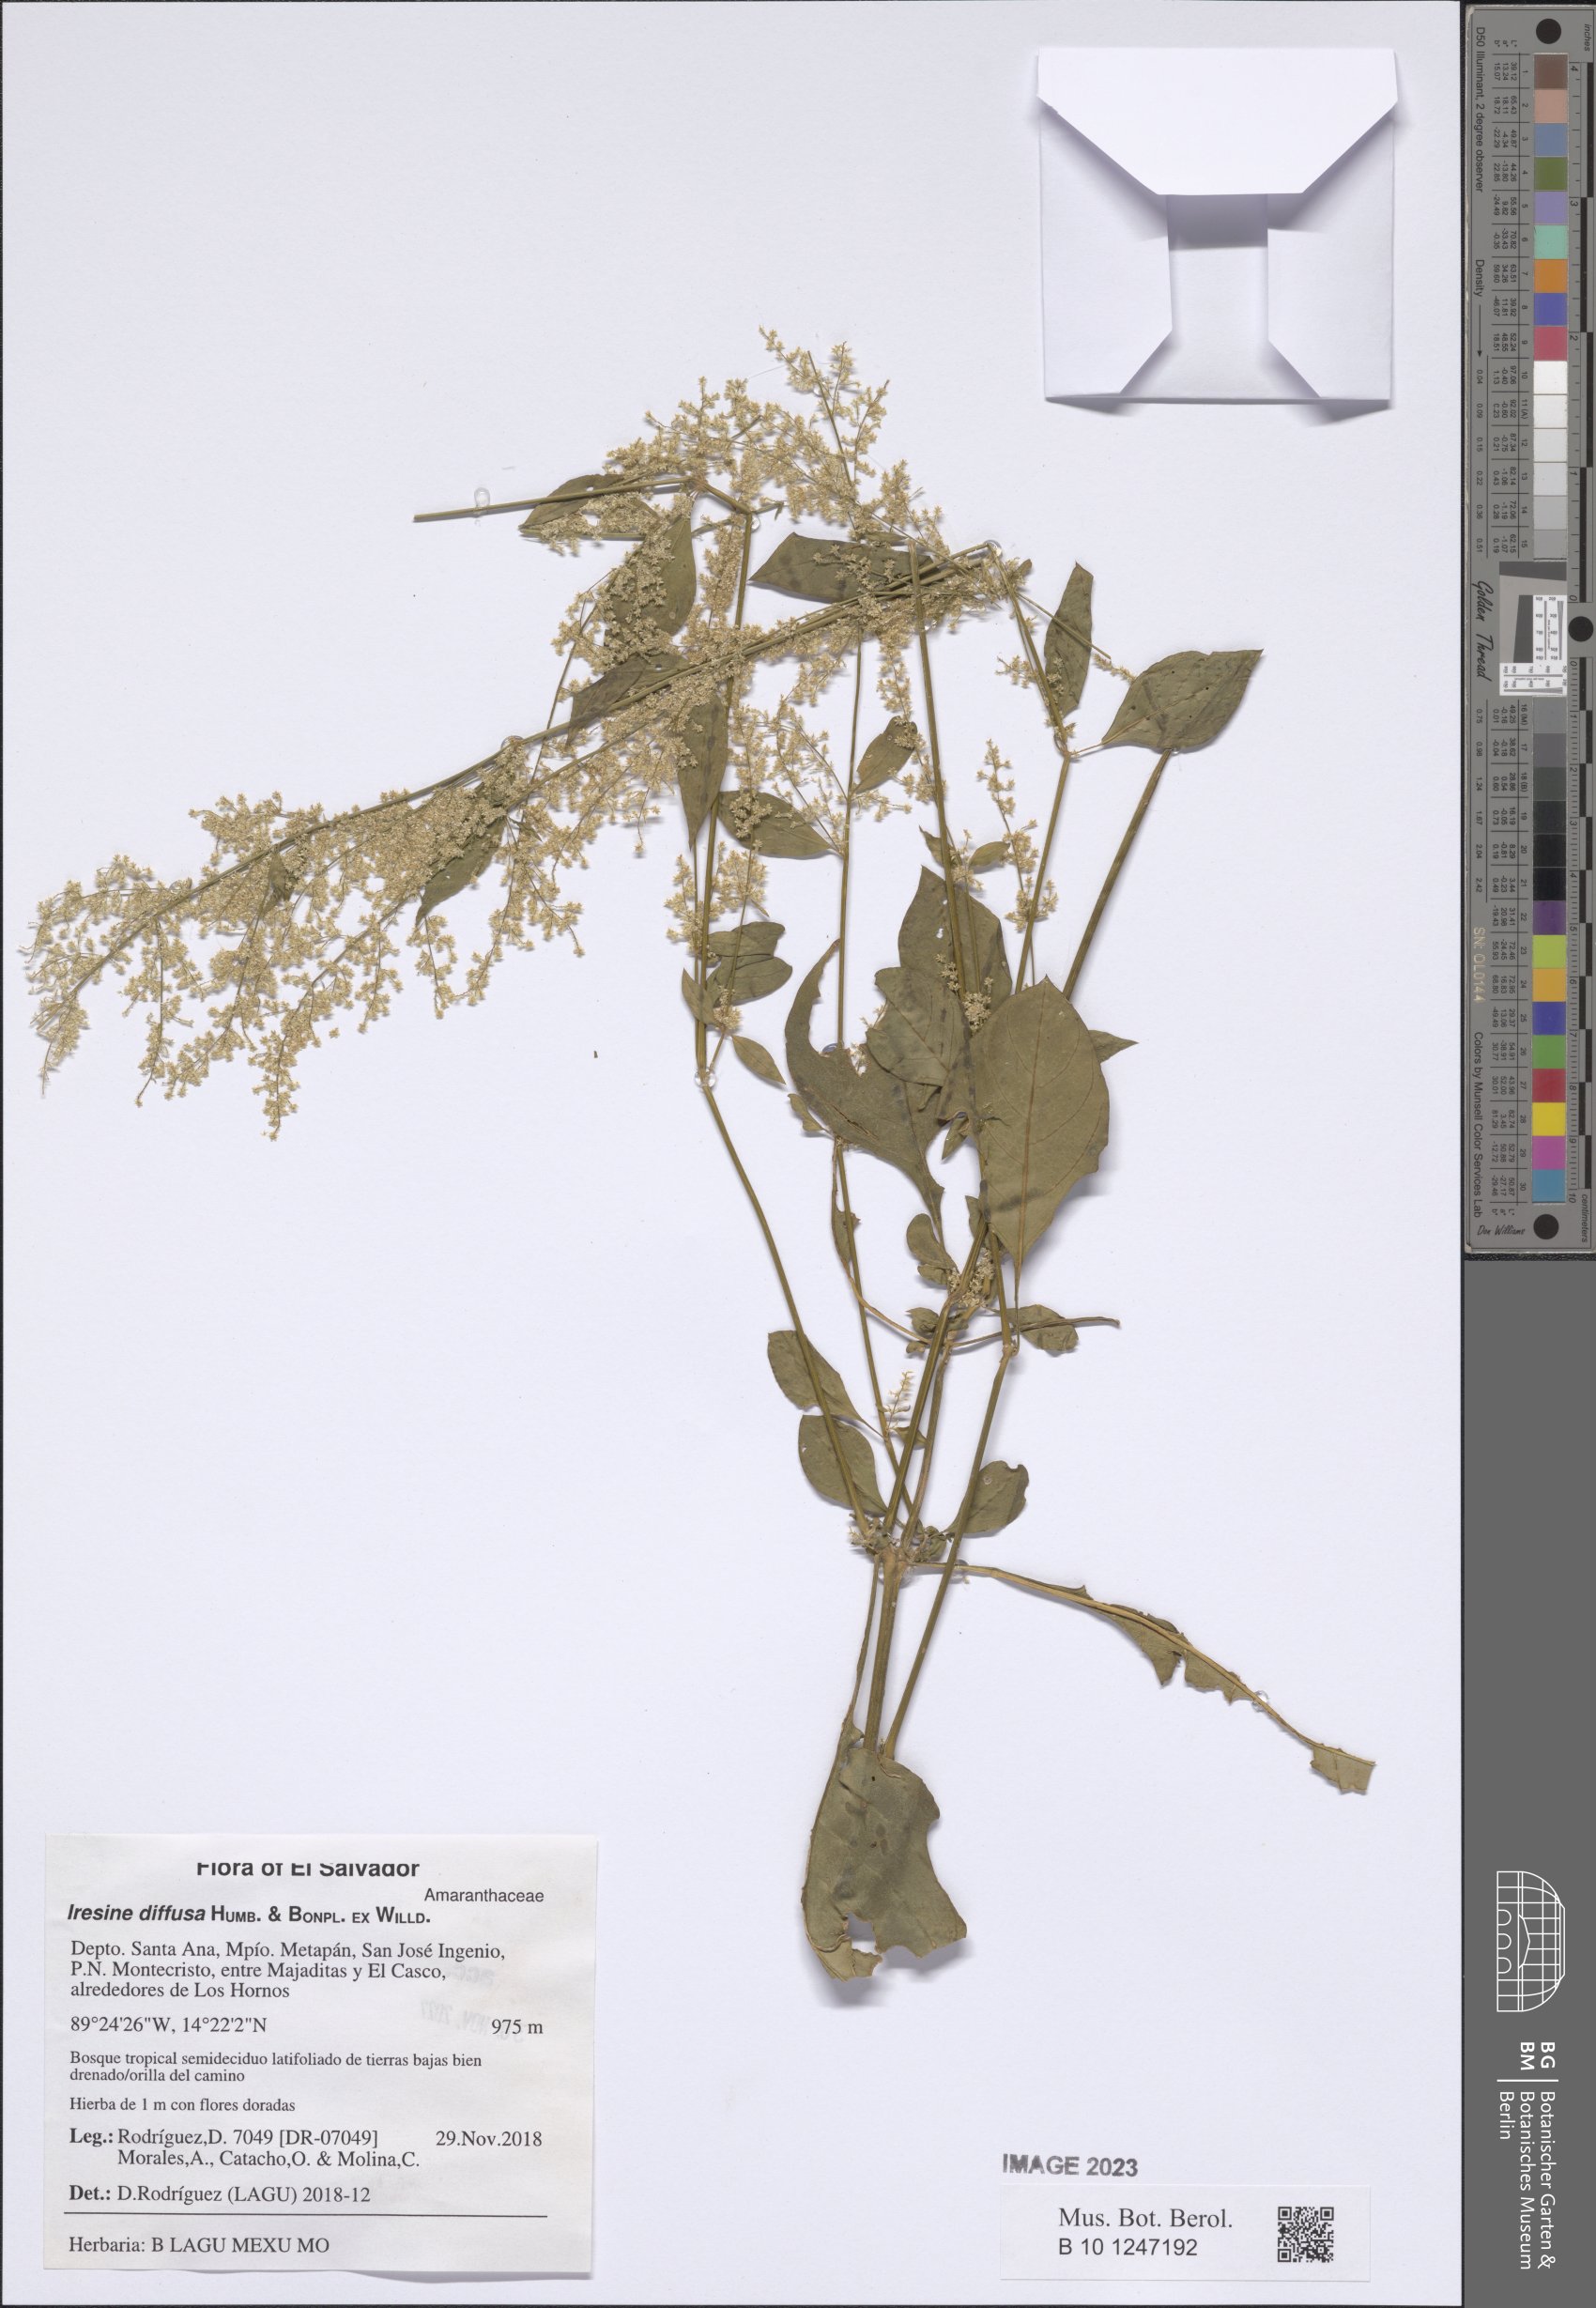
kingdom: Plantae
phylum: Tracheophyta
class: Magnoliopsida
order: Caryophyllales
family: Amaranthaceae
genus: Iresine
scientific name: Iresine diffusa
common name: Juba's-bush
